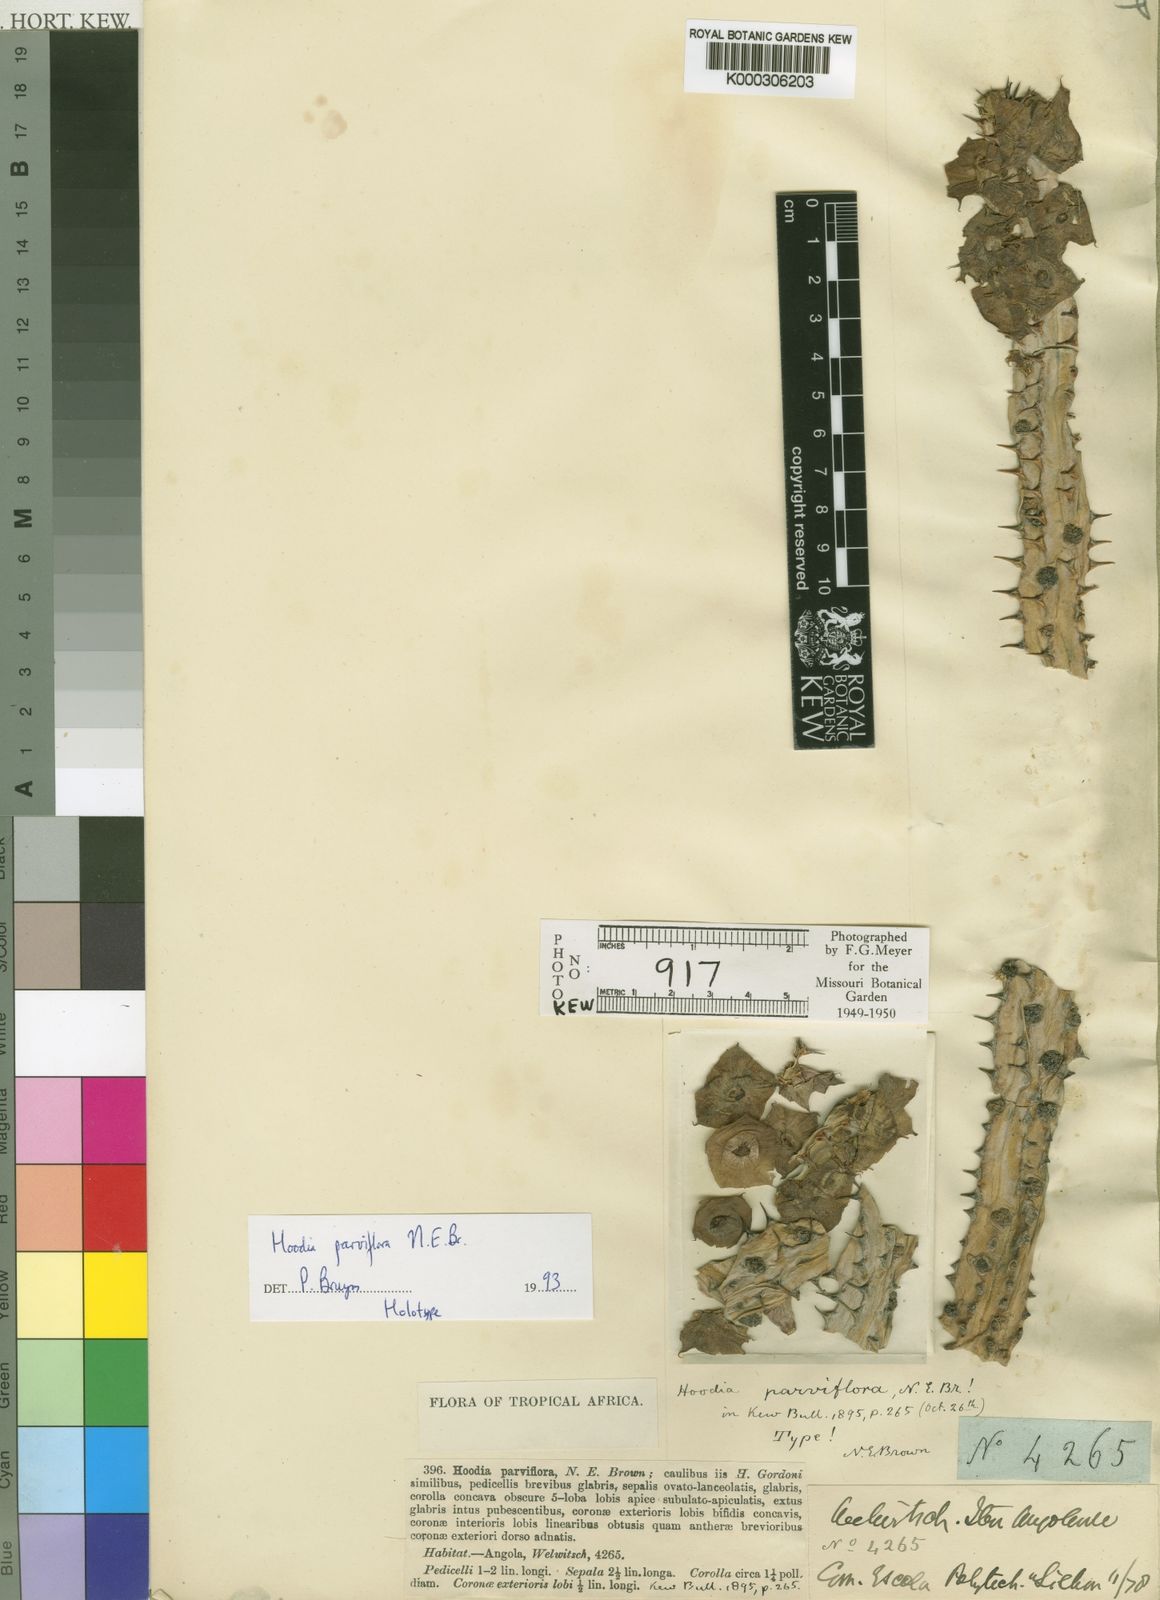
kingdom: Plantae
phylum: Tracheophyta
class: Magnoliopsida
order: Gentianales
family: Apocynaceae
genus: Ceropegia
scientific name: Ceropegia floriparva
